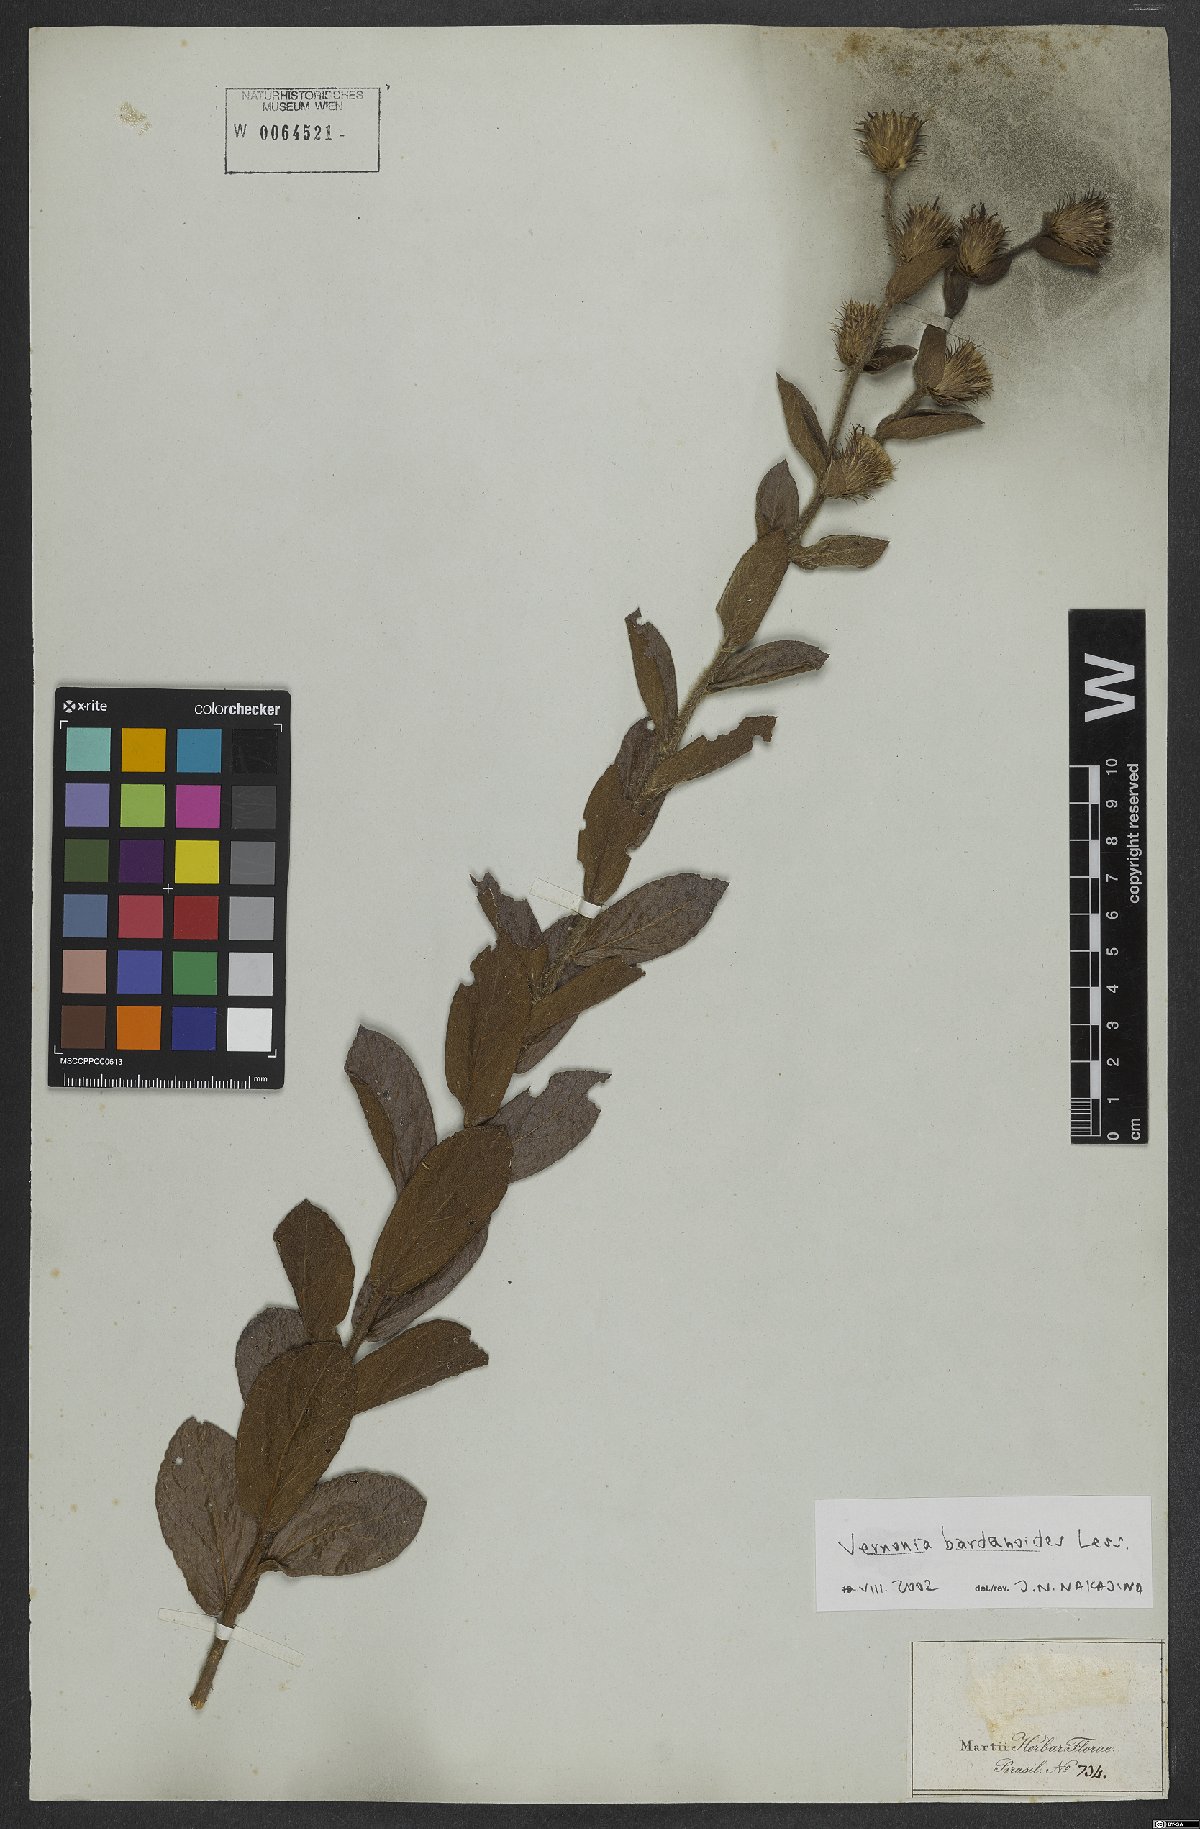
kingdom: Plantae
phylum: Tracheophyta
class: Magnoliopsida
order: Asterales
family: Asteraceae
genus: Lessingianthus
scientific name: Lessingianthus bardanioides
